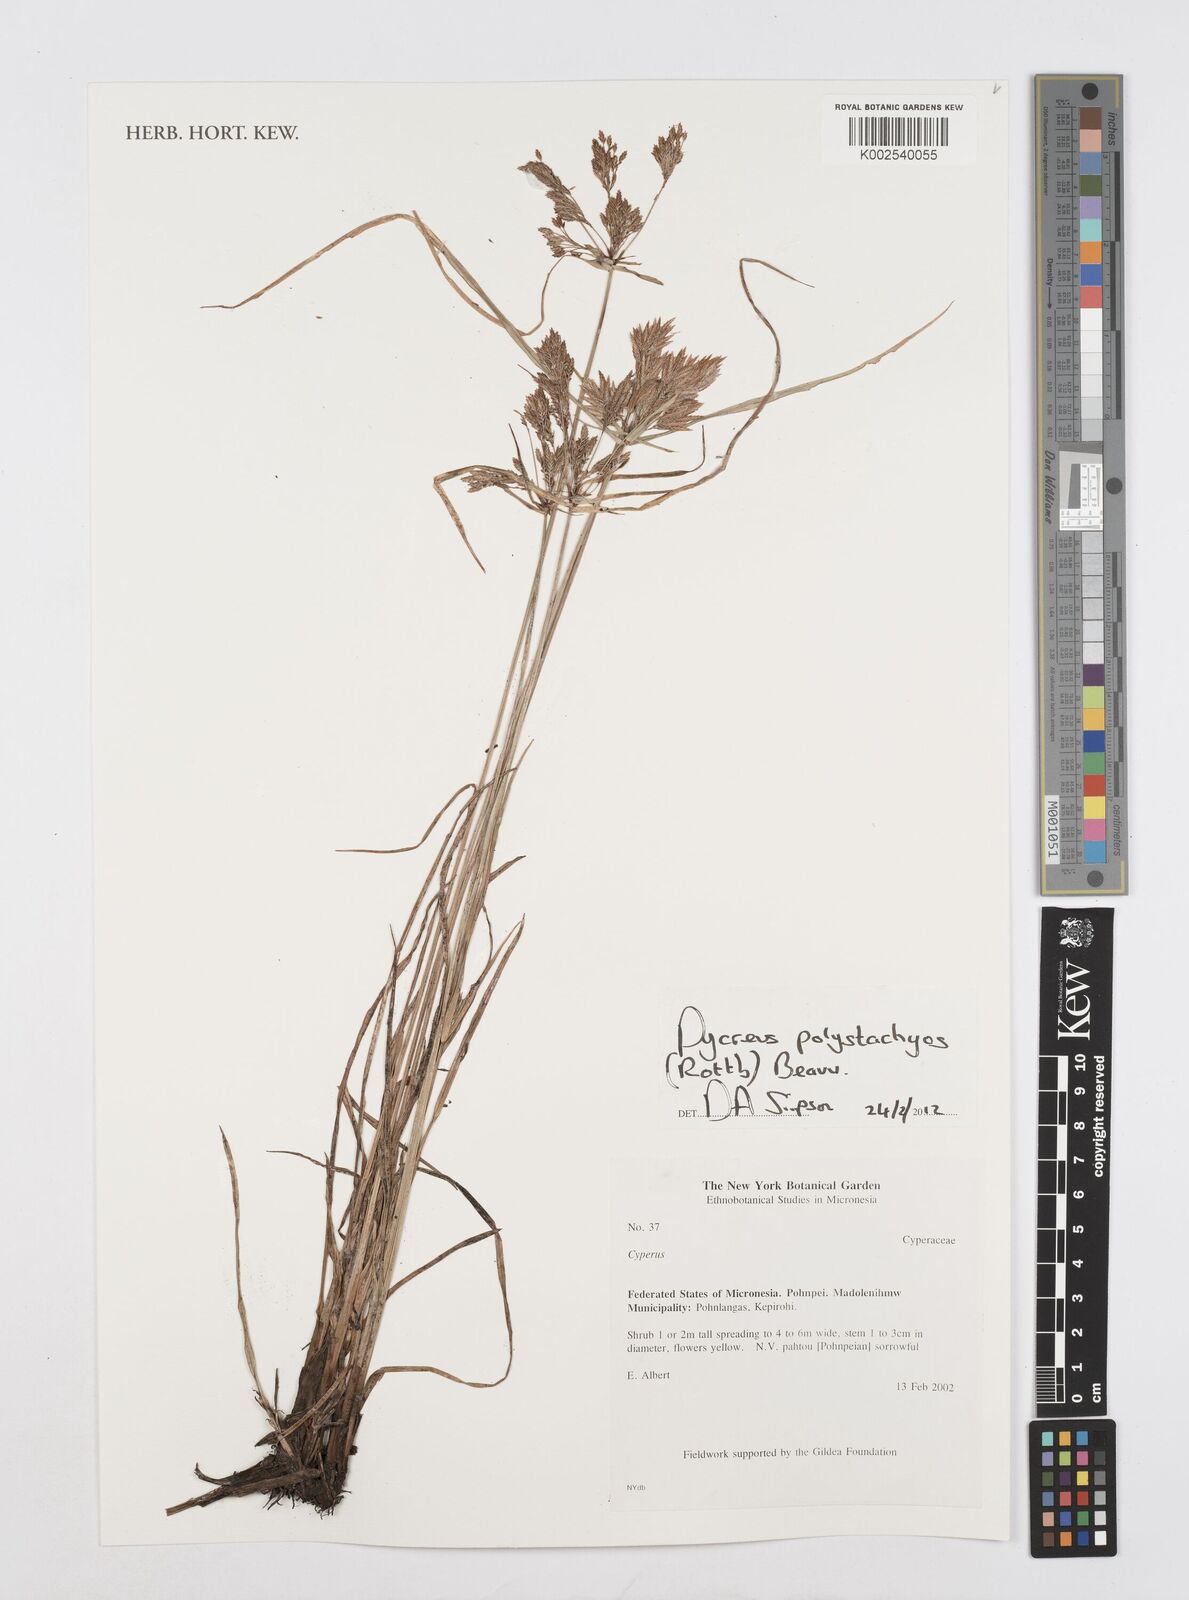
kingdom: Plantae
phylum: Tracheophyta
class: Liliopsida
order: Poales
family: Cyperaceae
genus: Cyperus
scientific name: Cyperus polystachyos
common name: Bunchy flat sedge
